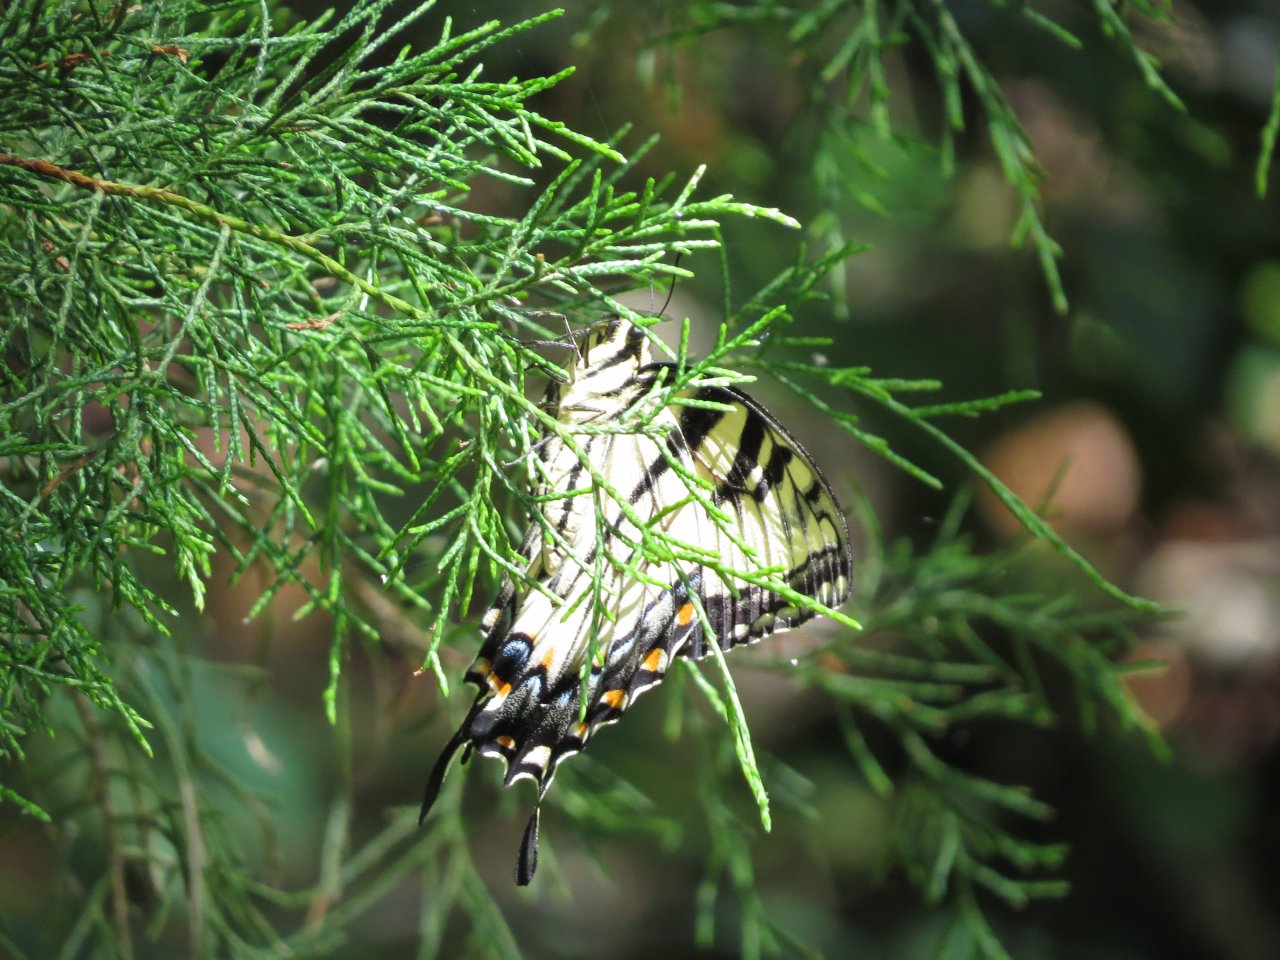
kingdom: Animalia
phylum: Arthropoda
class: Insecta
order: Lepidoptera
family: Papilionidae
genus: Pterourus
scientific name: Pterourus glaucus
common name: Eastern Tiger Swallowtail
